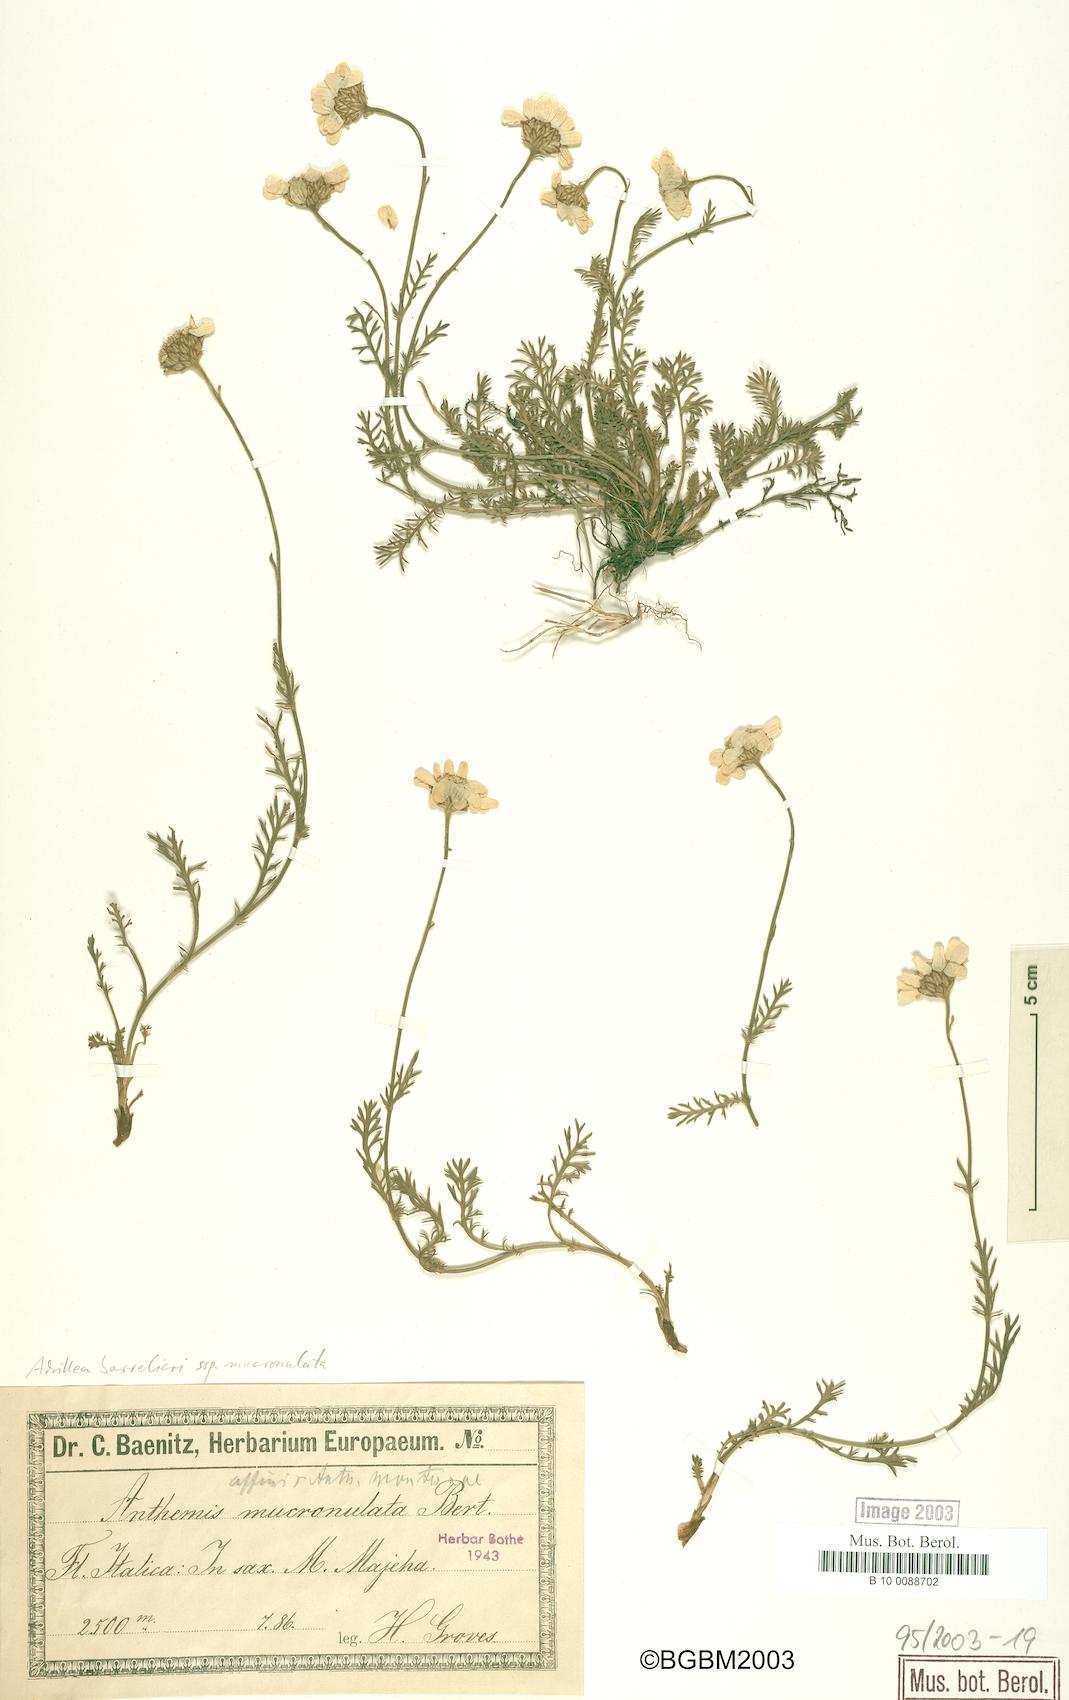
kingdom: Plantae
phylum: Tracheophyta
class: Magnoliopsida
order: Asterales
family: Asteraceae
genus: Achillea
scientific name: Achillea barrelieri
